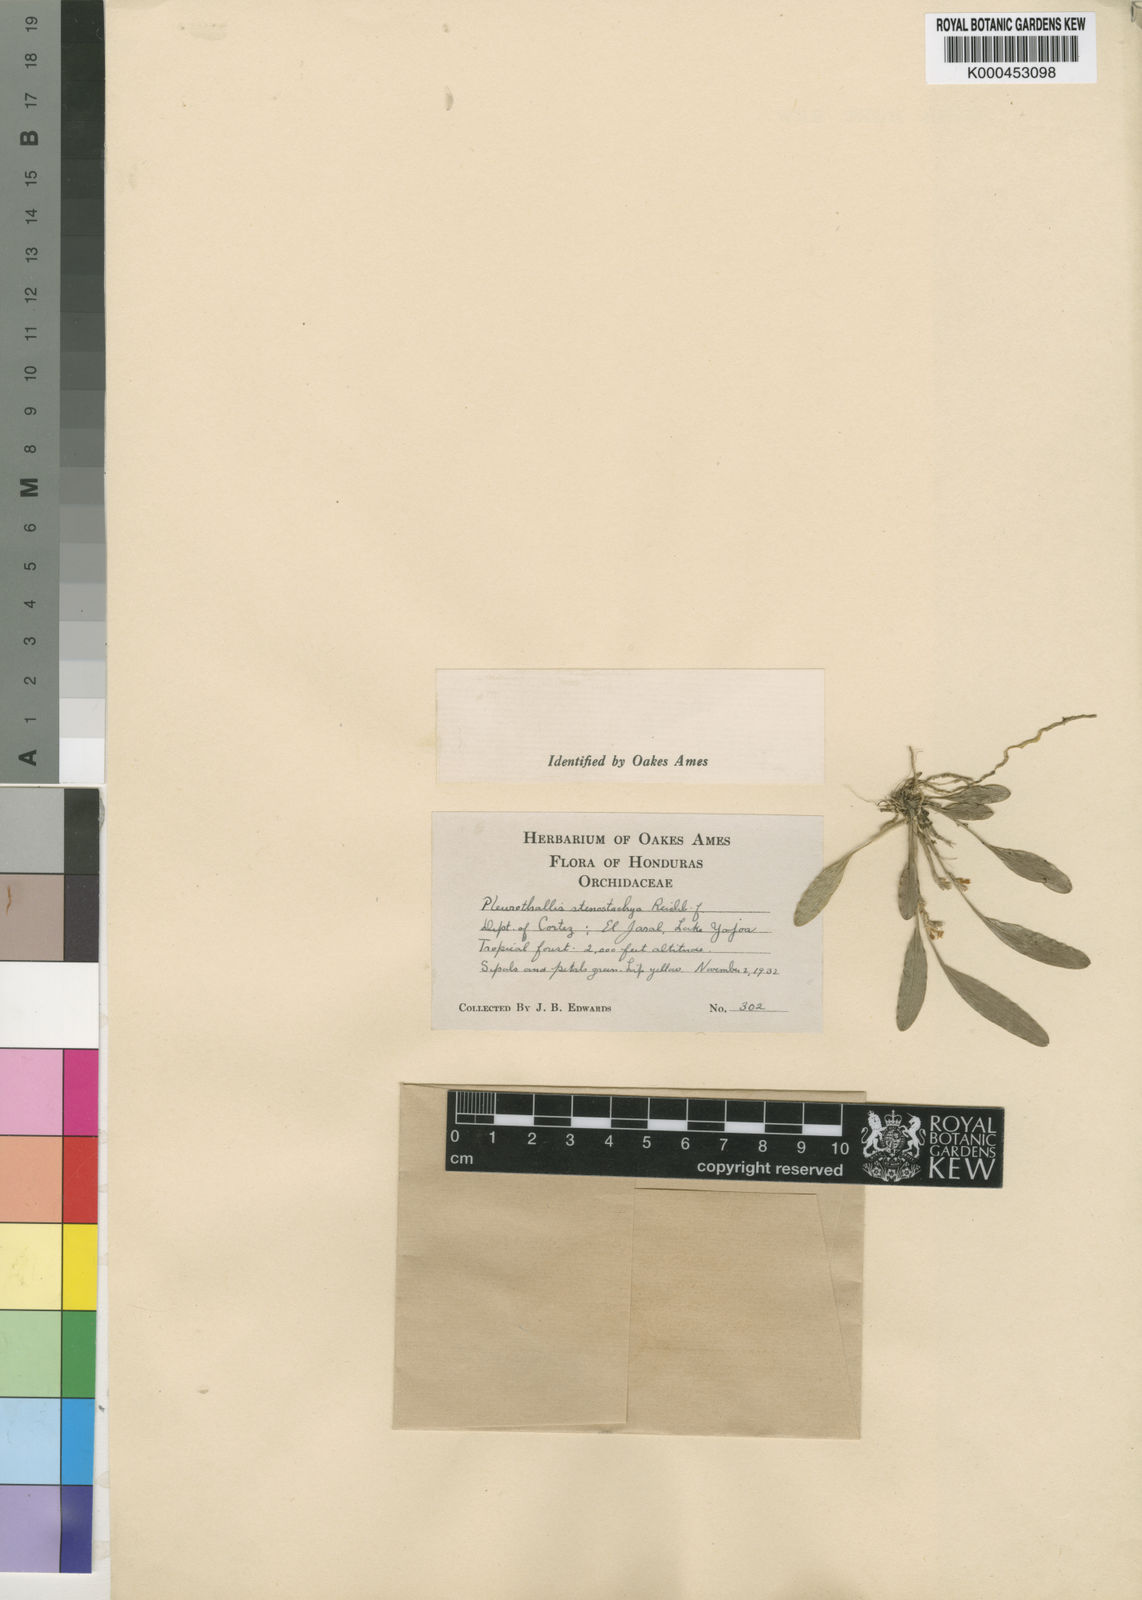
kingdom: Plantae
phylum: Tracheophyta
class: Liliopsida
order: Asparagales
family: Orchidaceae
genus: Platystele
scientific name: Platystele stenostachya
